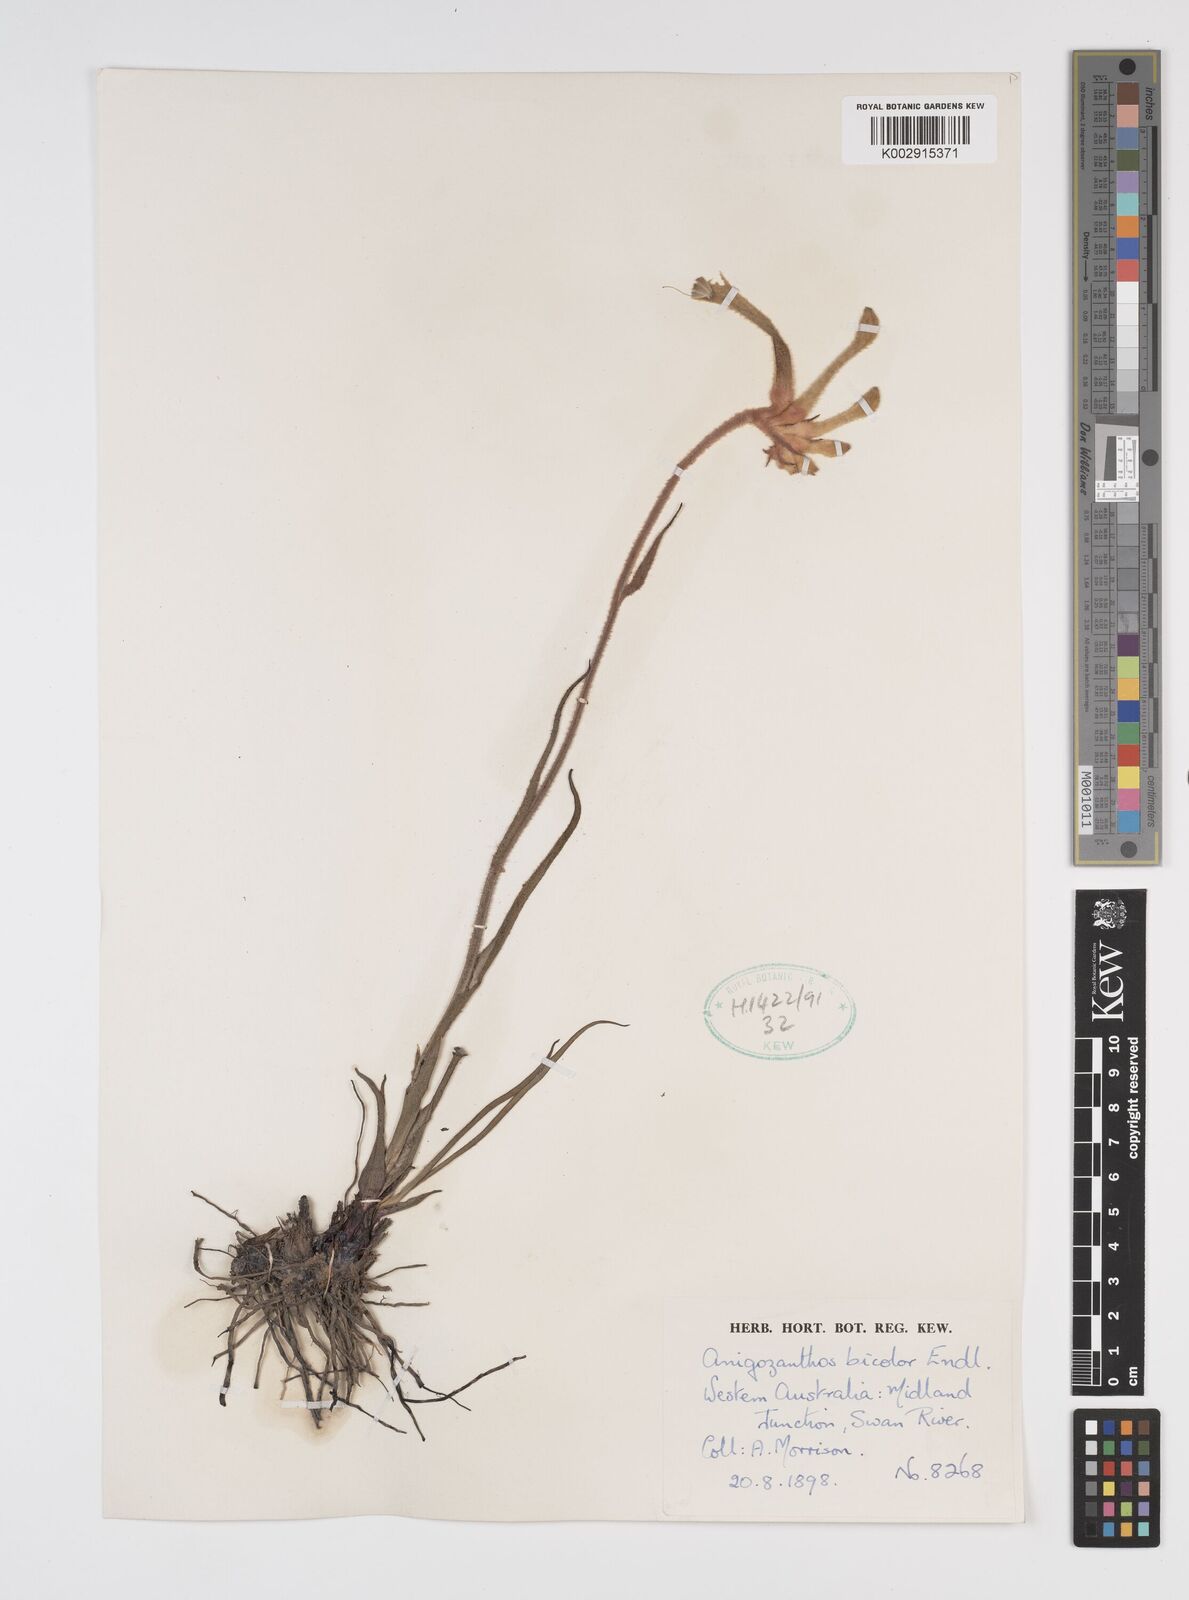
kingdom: Plantae
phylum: Tracheophyta
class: Liliopsida
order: Commelinales
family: Haemodoraceae
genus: Anigozanthos
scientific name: Anigozanthos bicolor
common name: Little kangaroo-paw
